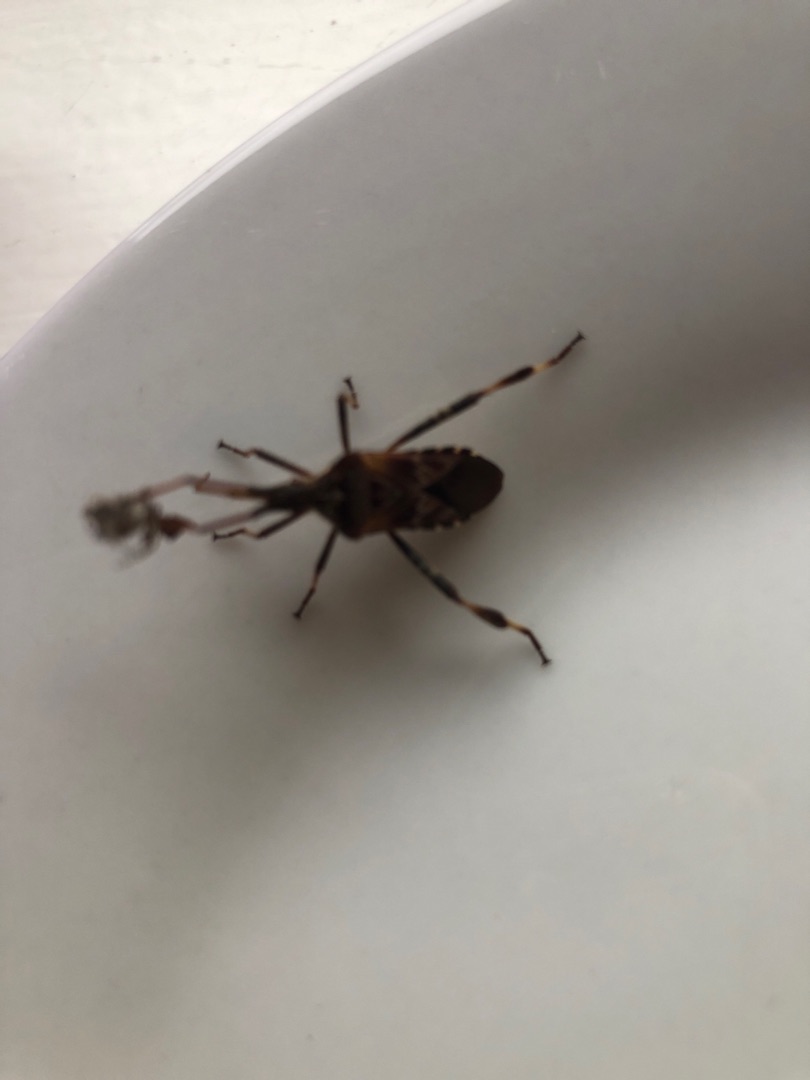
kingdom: Animalia
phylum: Arthropoda
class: Insecta
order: Hemiptera
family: Coreidae
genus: Leptoglossus
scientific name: Leptoglossus occidentalis
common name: Amerikansk fyrretæge
